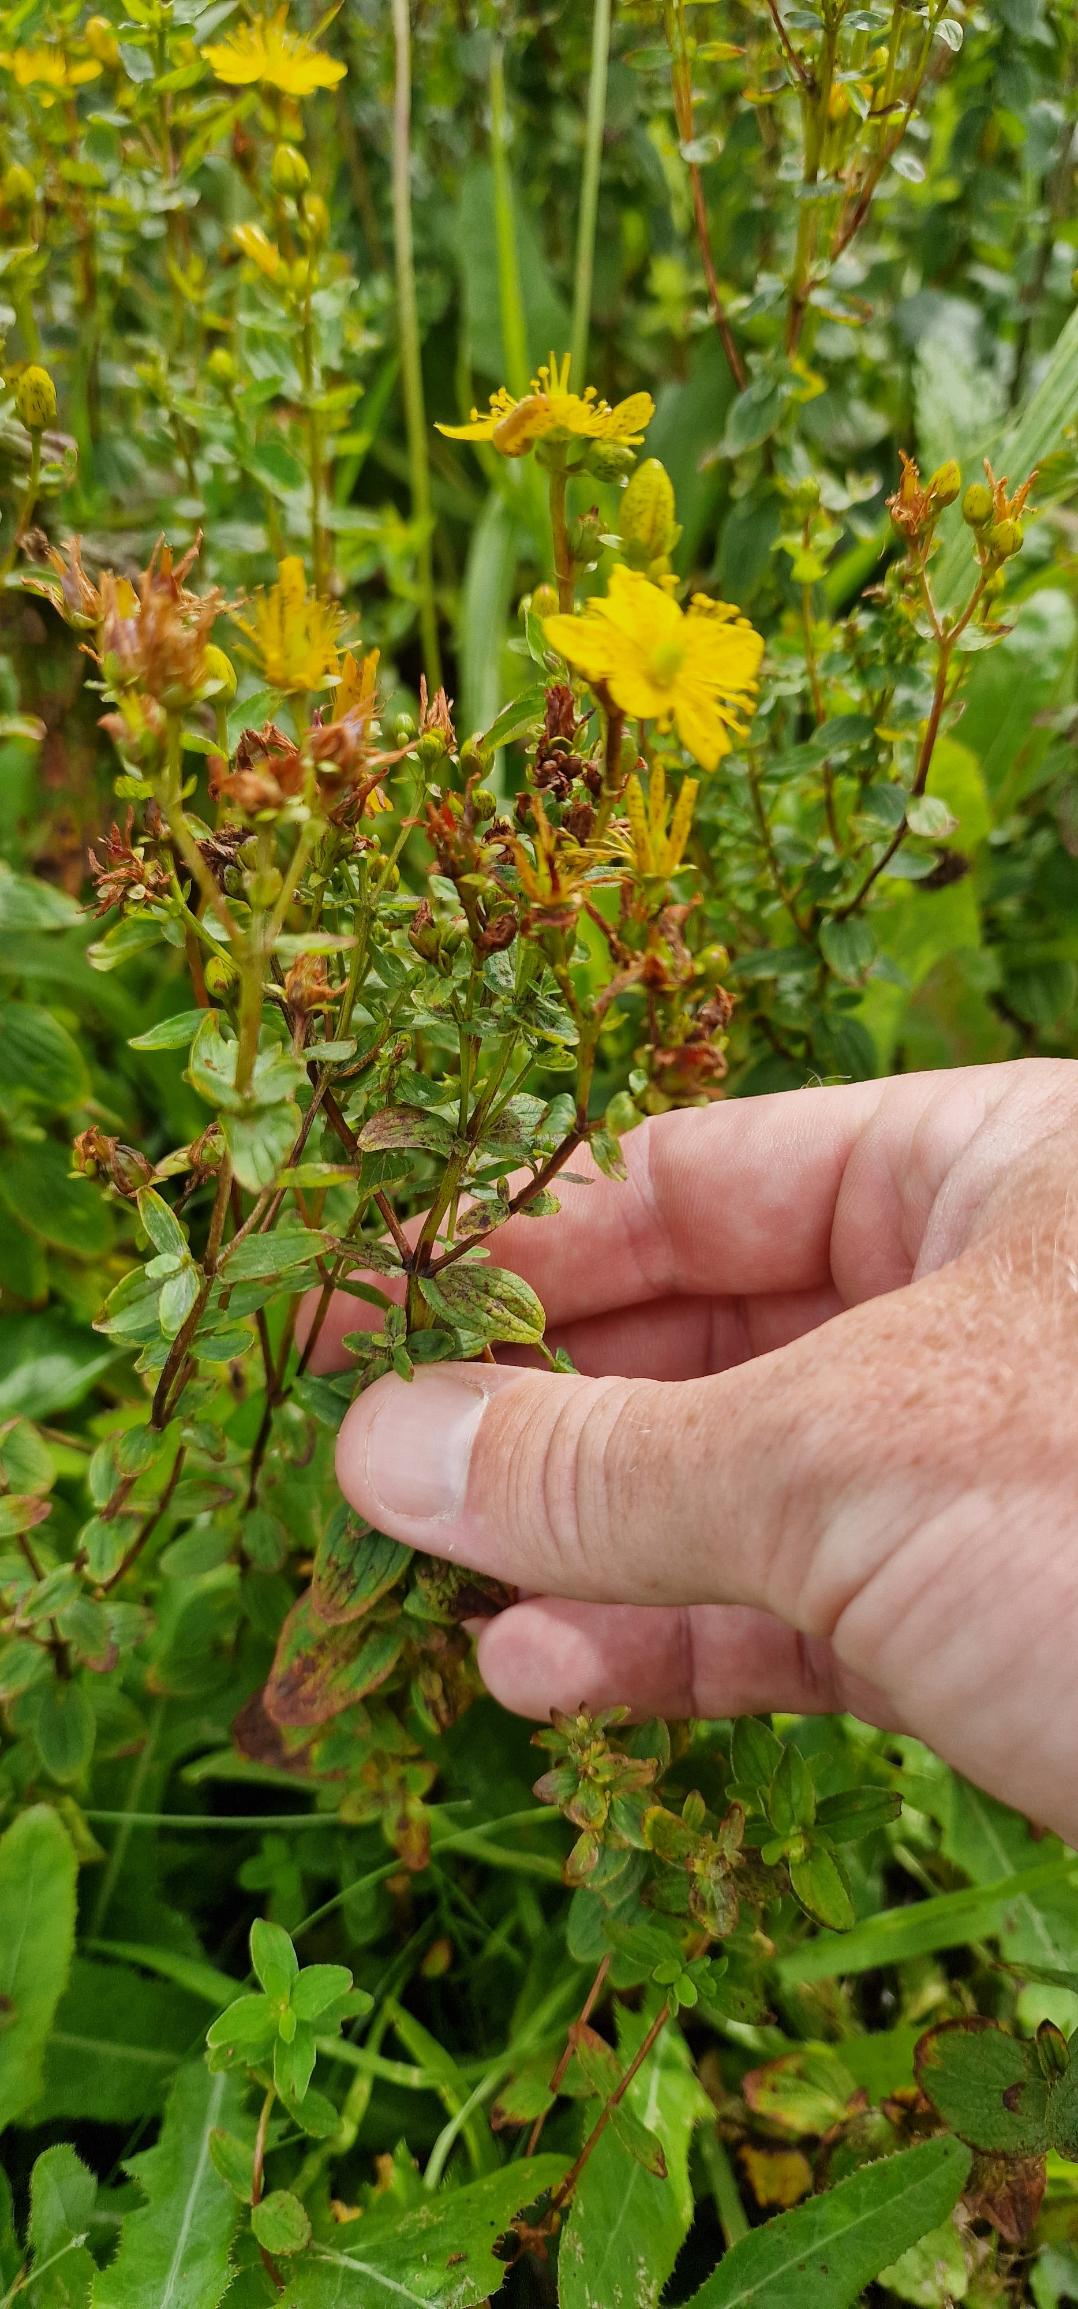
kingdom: Plantae
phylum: Tracheophyta
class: Magnoliopsida
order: Malpighiales
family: Hypericaceae
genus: Hypericum
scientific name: Hypericum maculatum
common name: Kantet perikon
